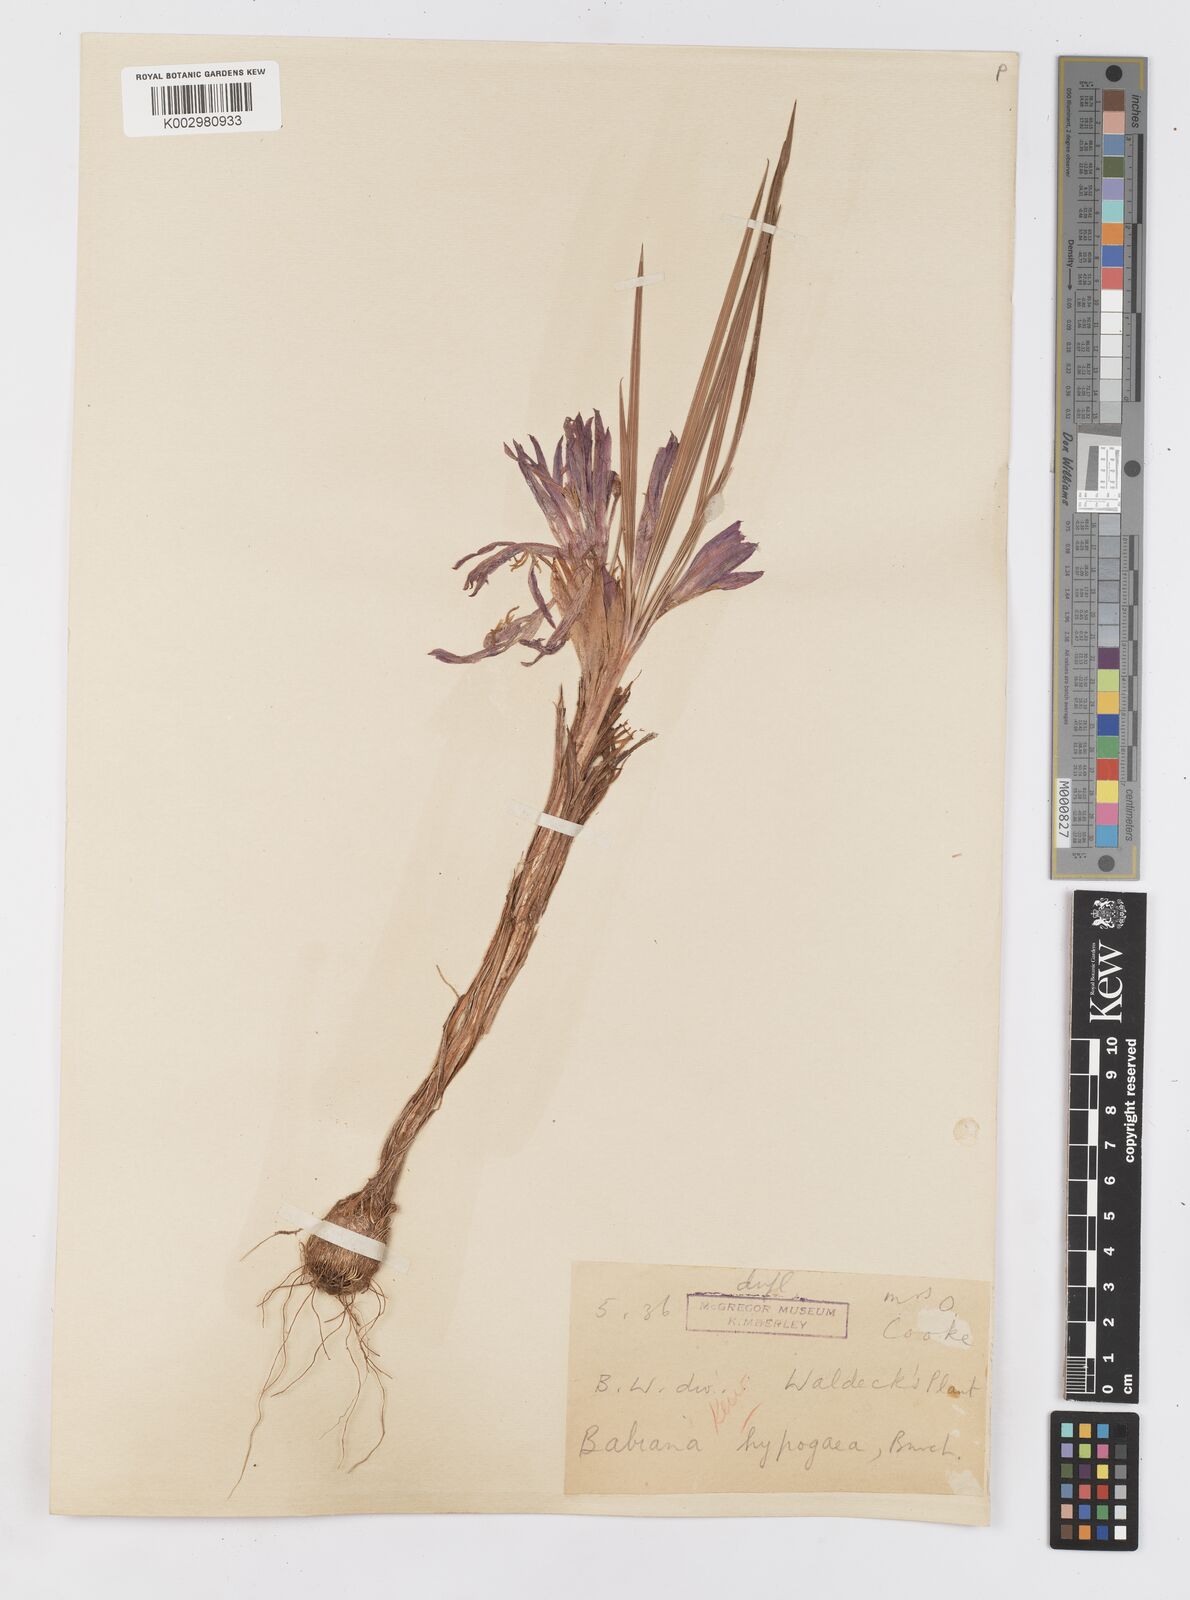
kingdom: Plantae
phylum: Tracheophyta
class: Liliopsida
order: Asparagales
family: Iridaceae
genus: Babiana
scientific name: Babiana hypogaea
